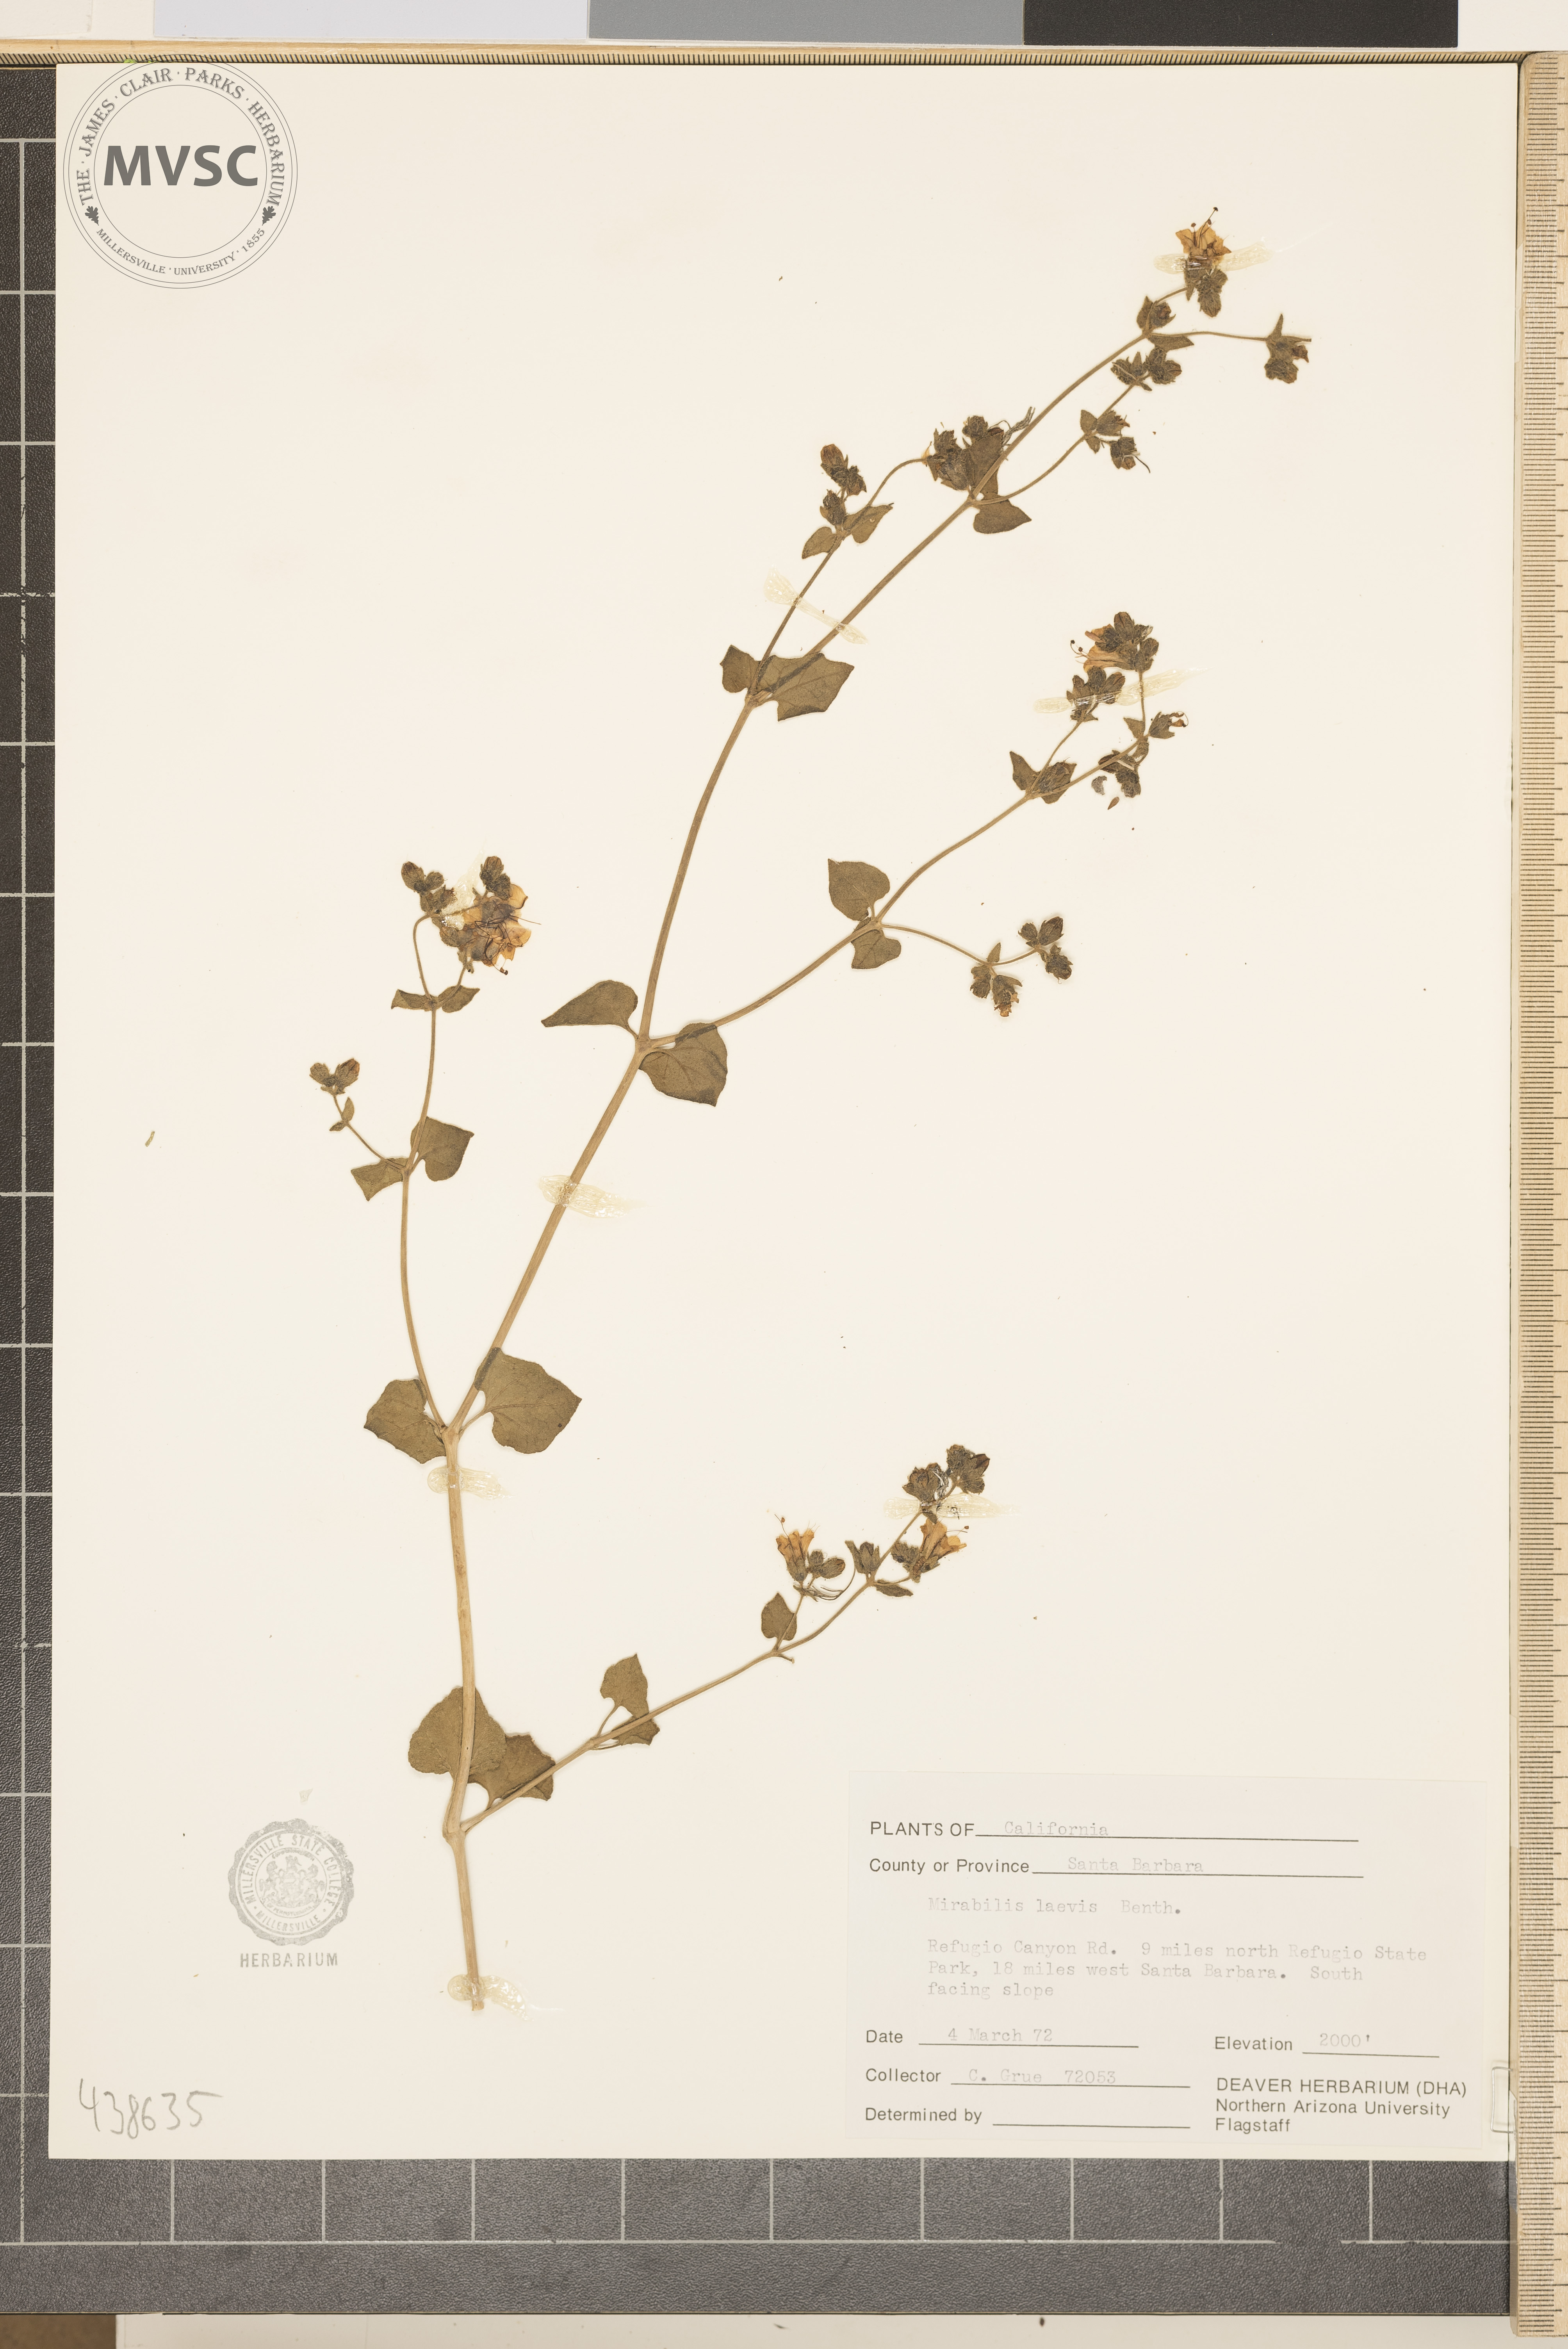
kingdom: Plantae
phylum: Tracheophyta
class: Magnoliopsida
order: Caryophyllales
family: Nyctaginaceae
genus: Mirabilis
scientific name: Mirabilis laevis
